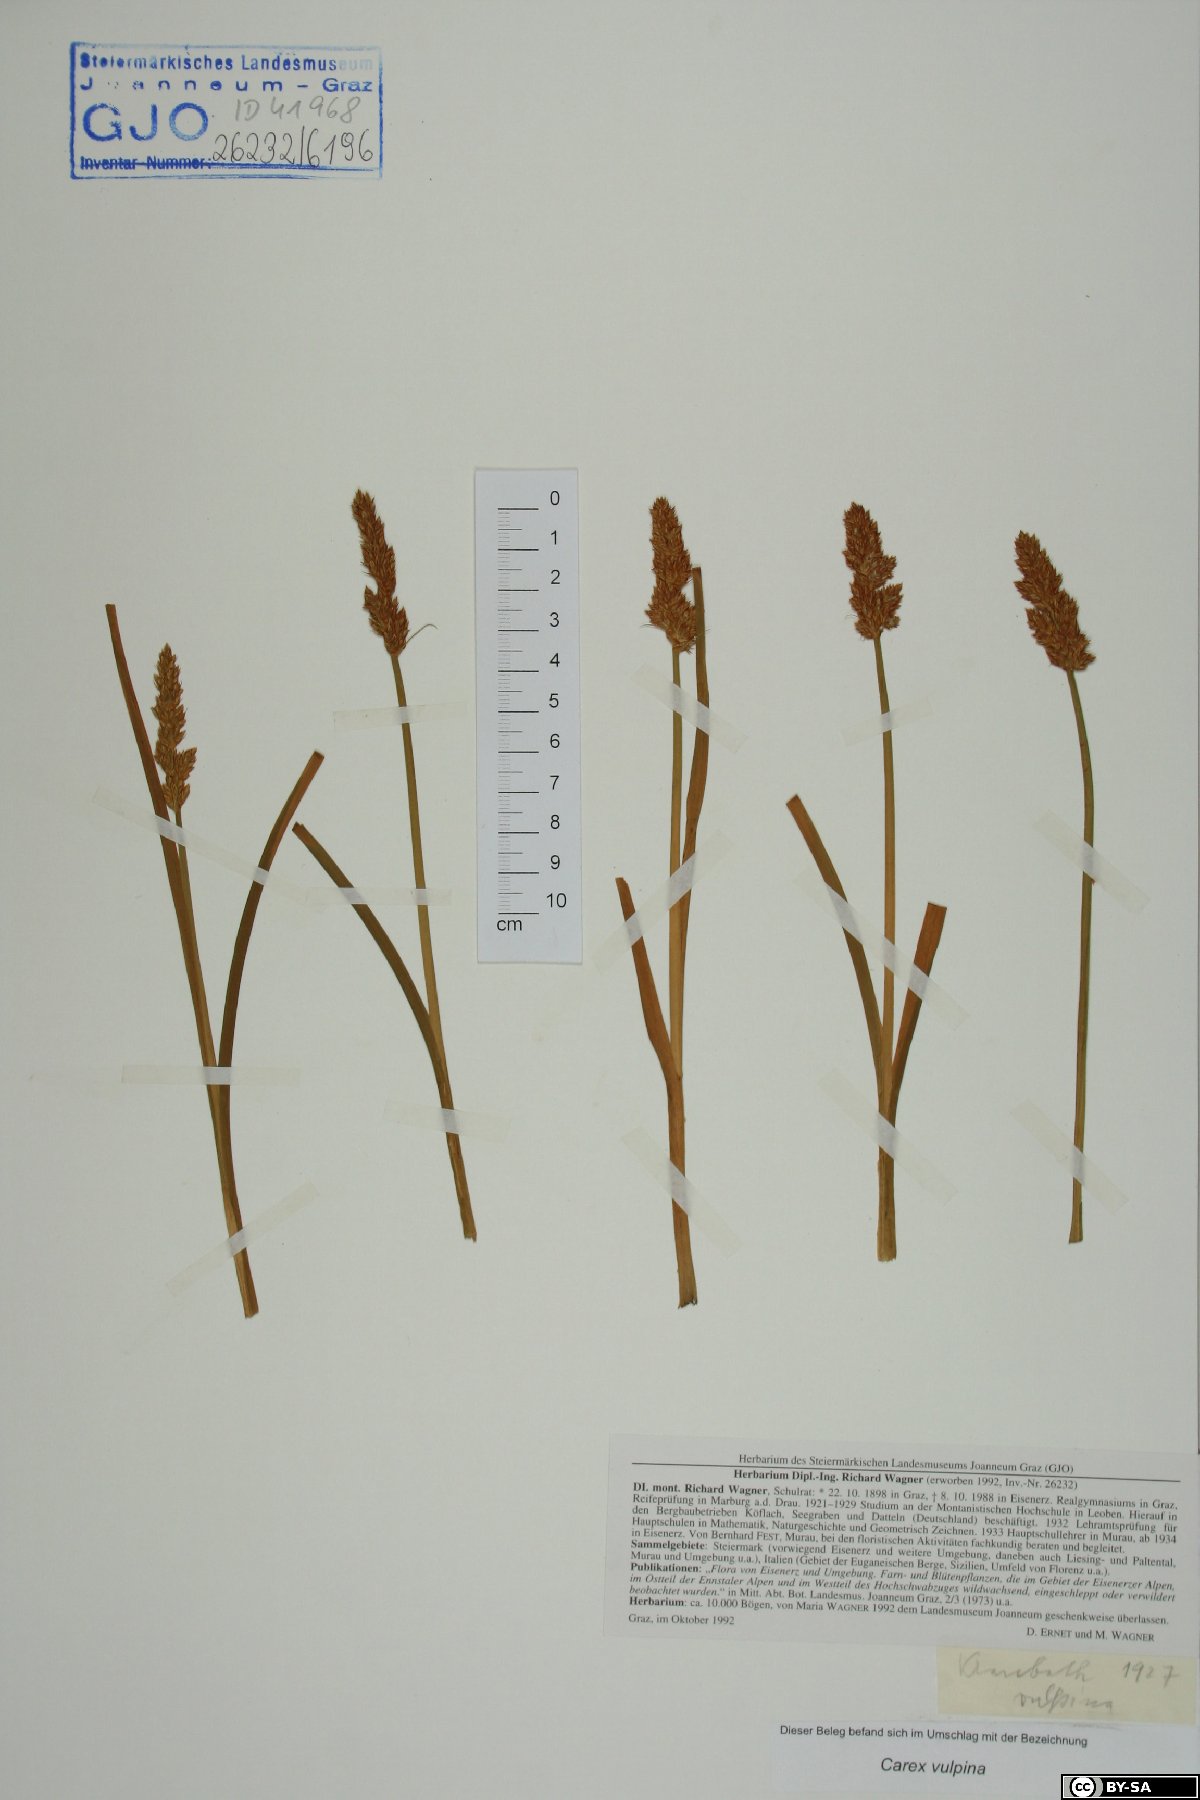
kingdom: Plantae
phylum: Tracheophyta
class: Liliopsida
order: Poales
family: Cyperaceae
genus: Carex
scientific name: Carex vulpina
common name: True fox-sedge
